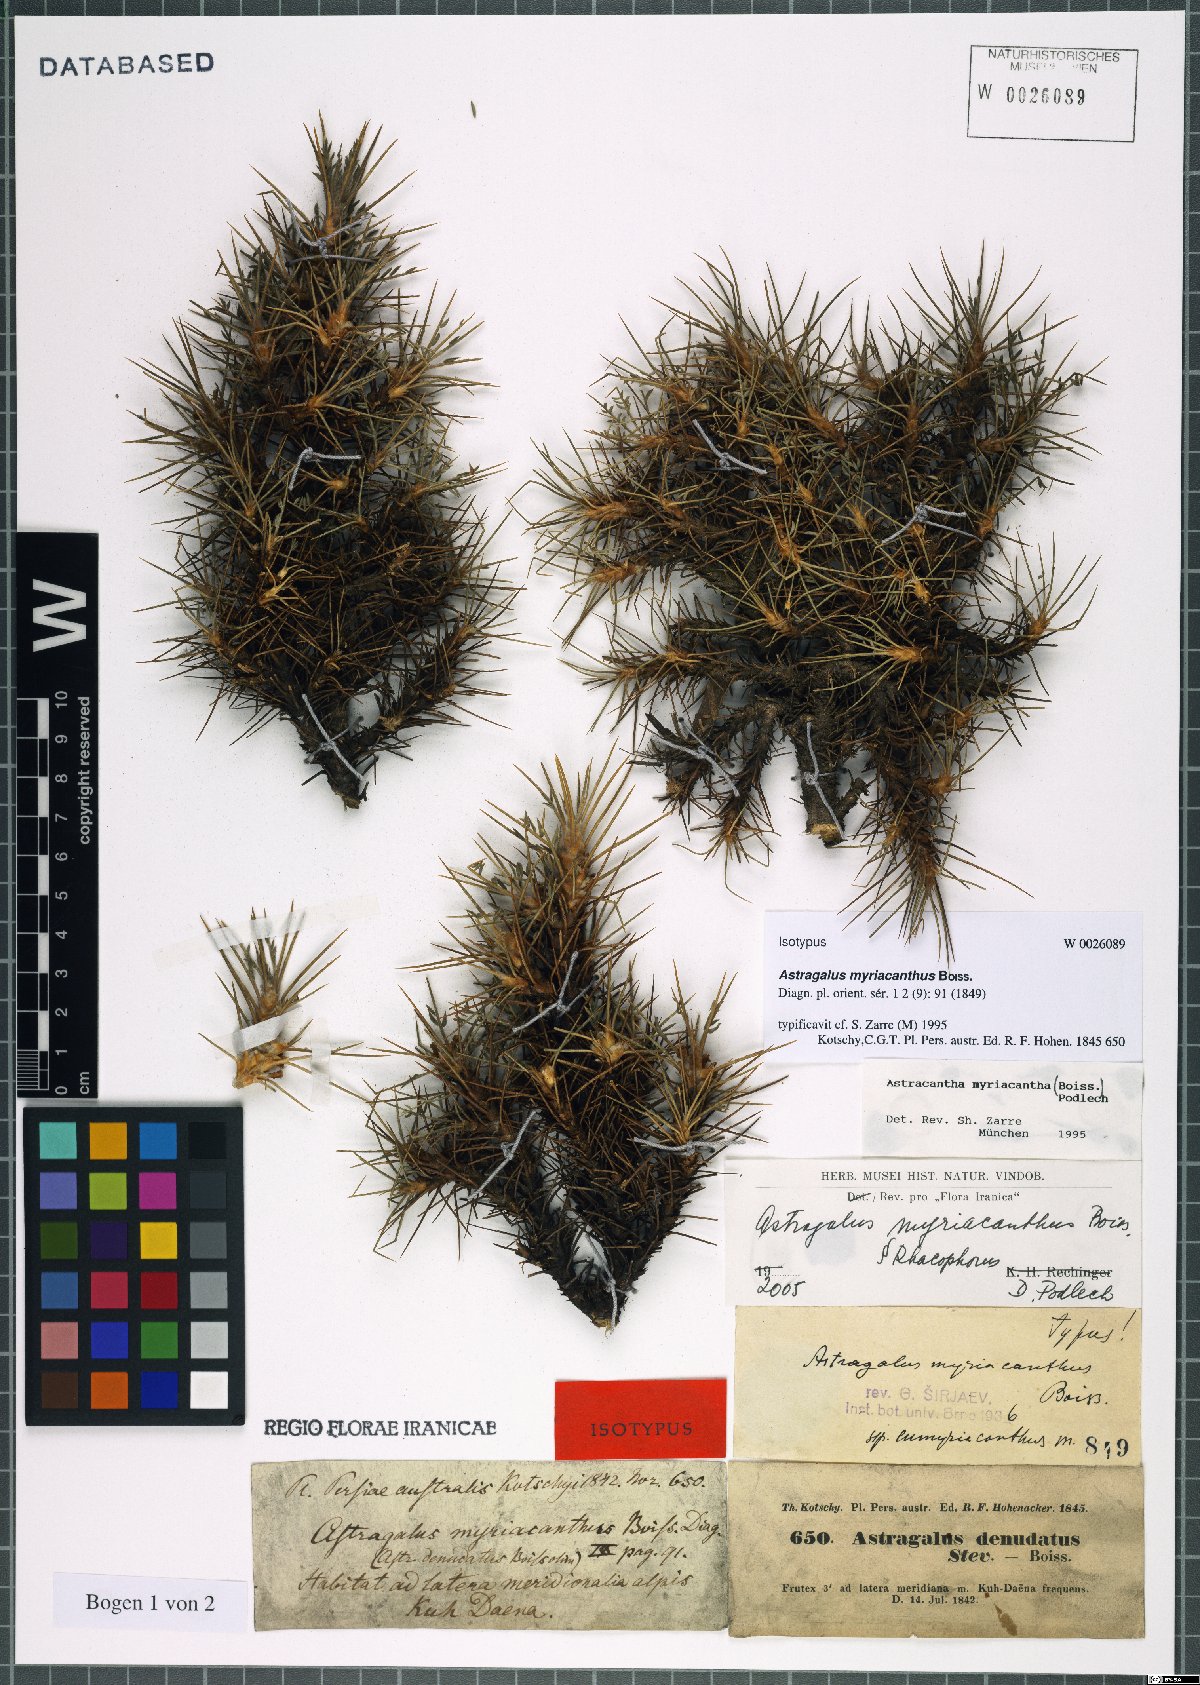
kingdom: Plantae
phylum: Tracheophyta
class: Magnoliopsida
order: Fabales
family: Fabaceae
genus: Astragalus
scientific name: Astragalus myriacanthus
